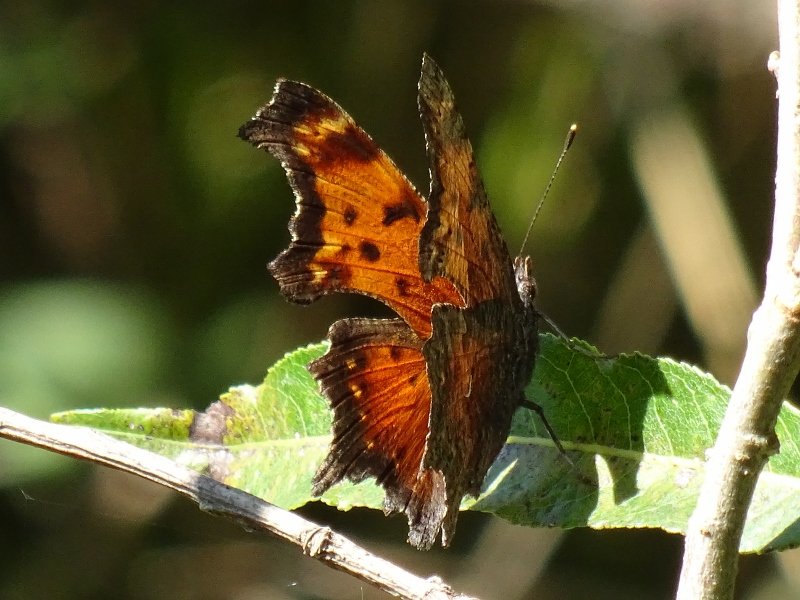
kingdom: Animalia
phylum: Arthropoda
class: Insecta
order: Lepidoptera
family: Nymphalidae
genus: Polygonia
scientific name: Polygonia progne
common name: Gray Comma
